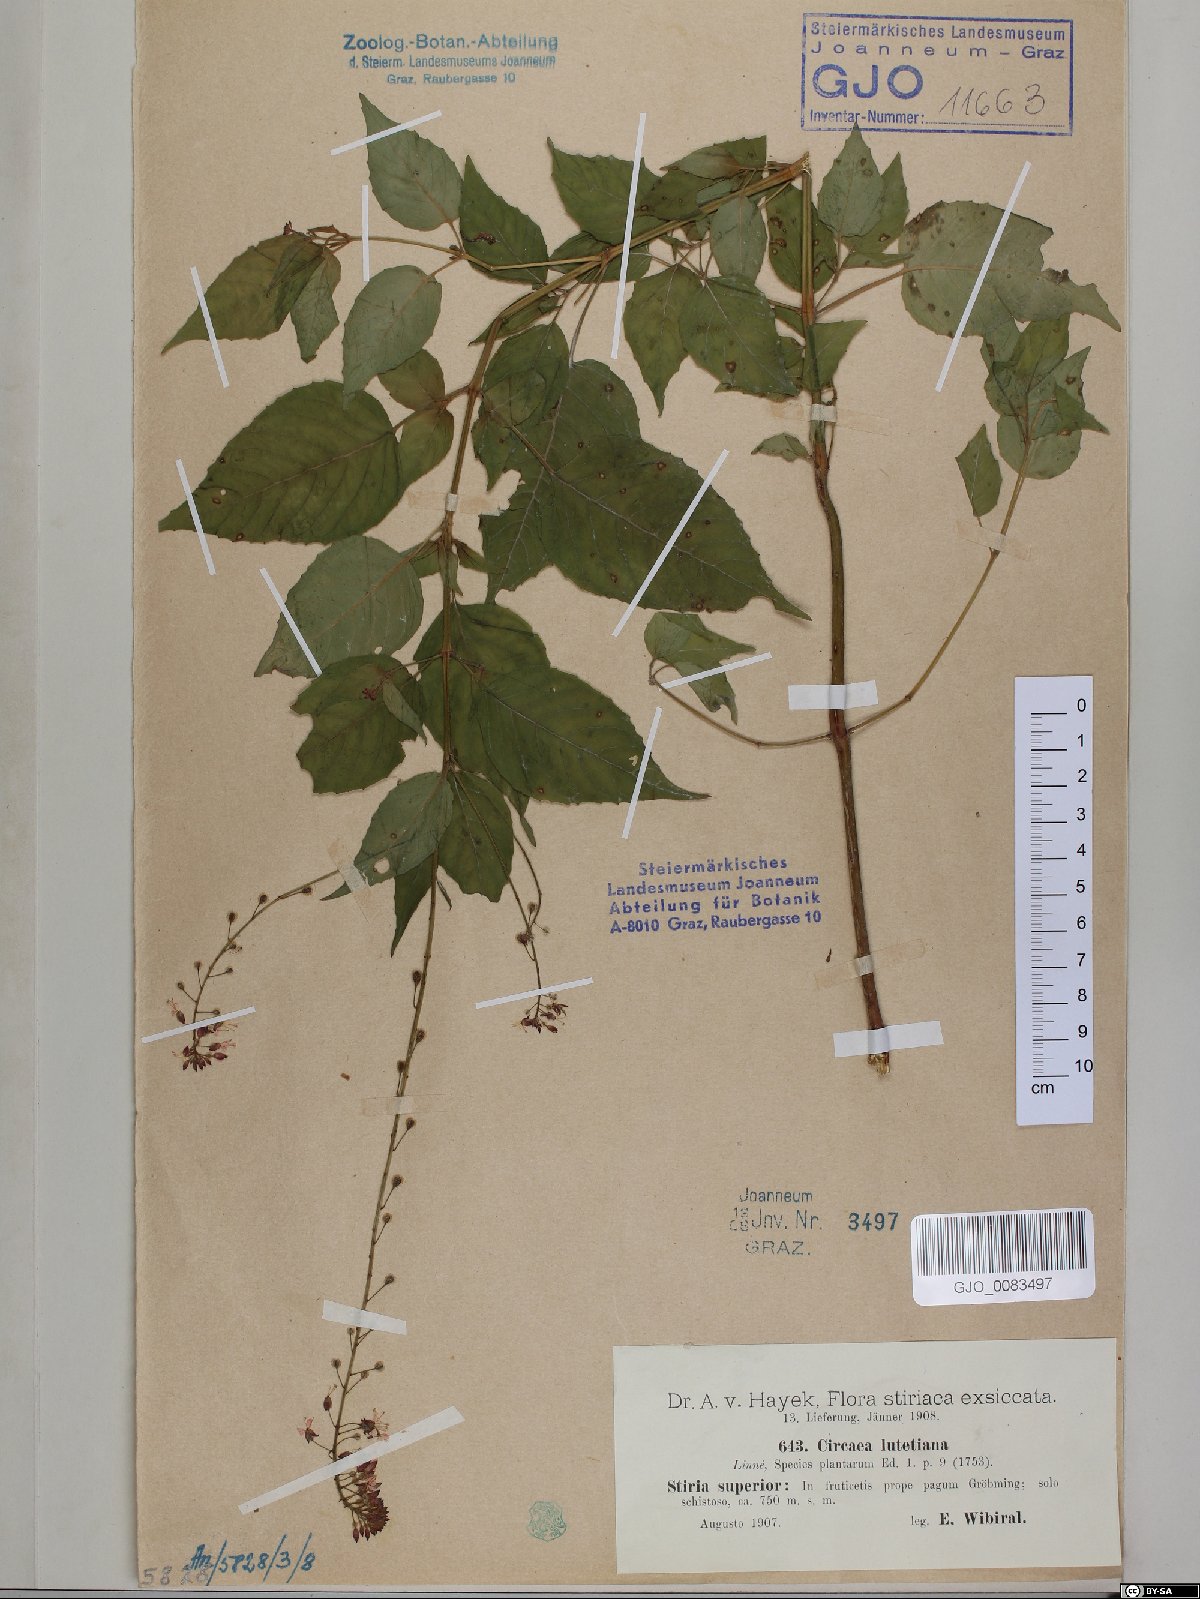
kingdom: Plantae
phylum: Tracheophyta
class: Magnoliopsida
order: Myrtales
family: Onagraceae
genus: Circaea
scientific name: Circaea lutetiana
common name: Enchanter's-nightshade
